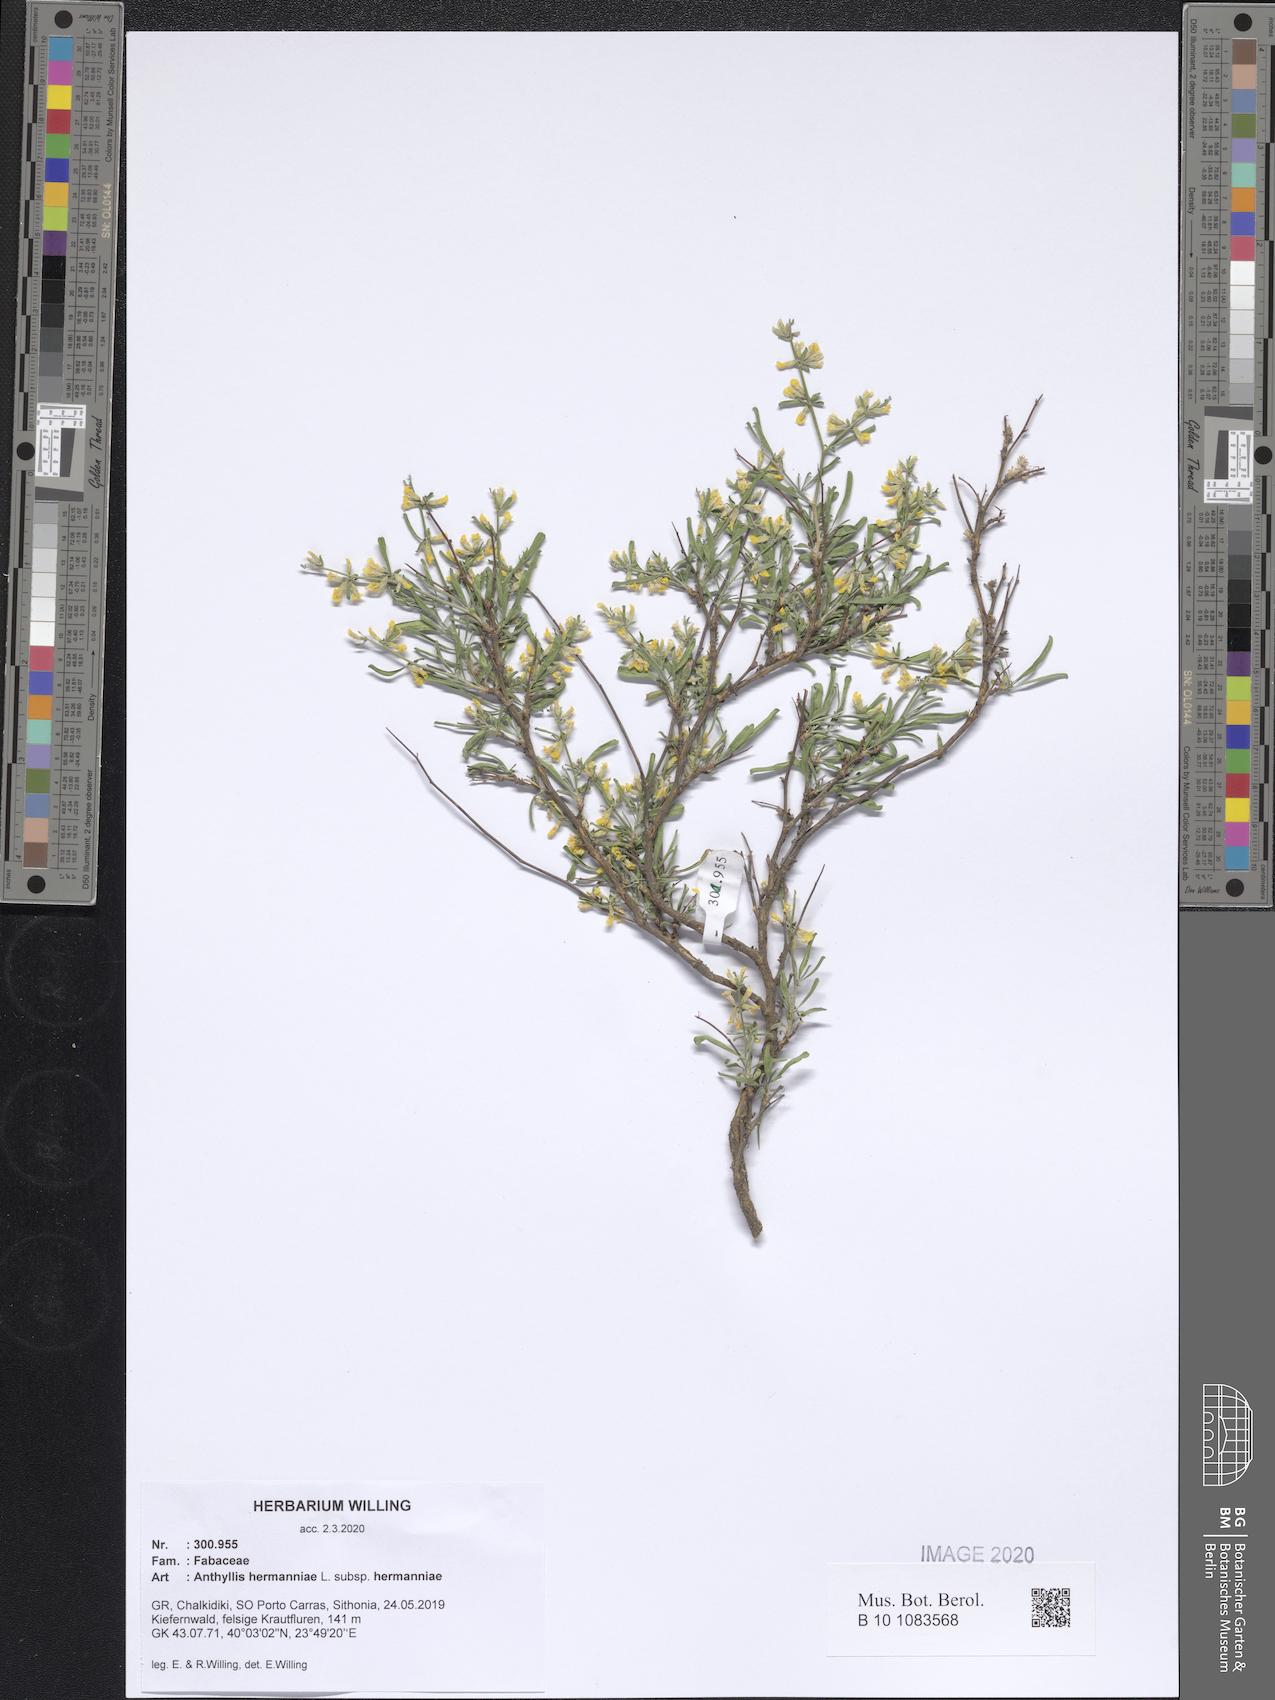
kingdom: Plantae
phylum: Tracheophyta
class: Magnoliopsida
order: Fabales
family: Fabaceae
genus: Anthyllis
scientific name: Anthyllis hermanniae
